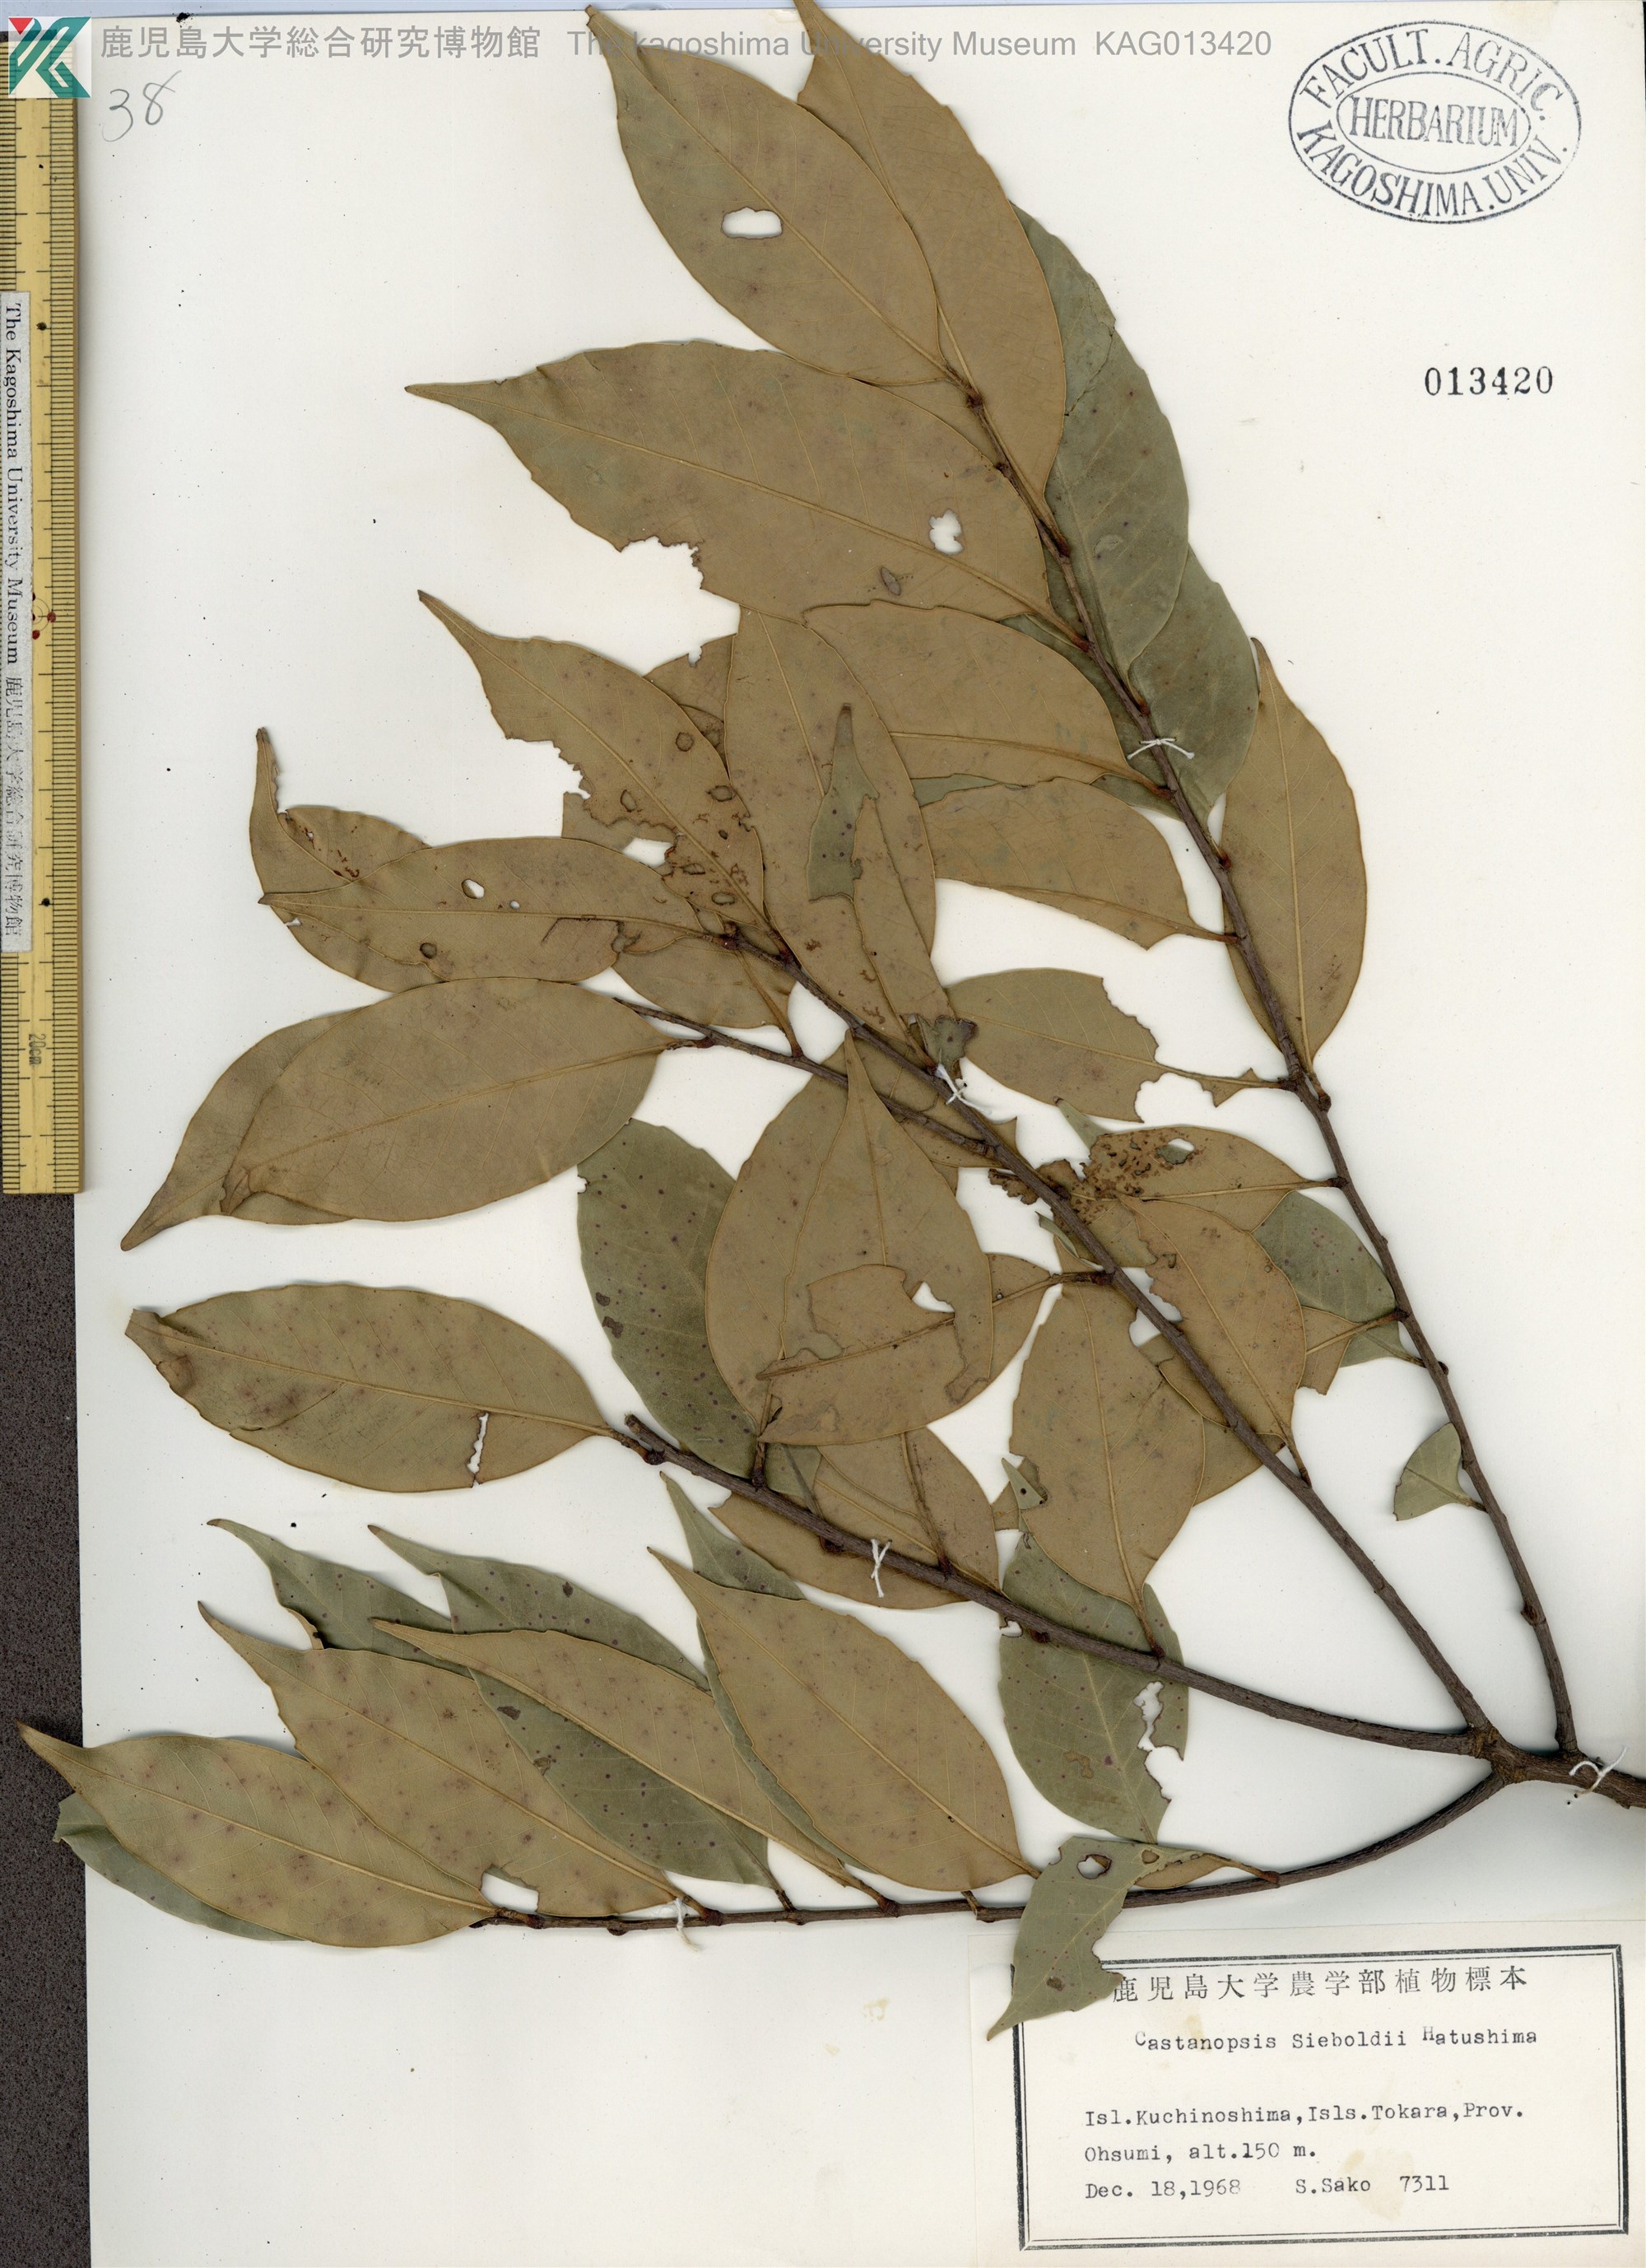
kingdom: Plantae
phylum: Tracheophyta
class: Magnoliopsida
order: Fagales
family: Fagaceae
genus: Castanopsis
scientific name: Castanopsis sieboldii
